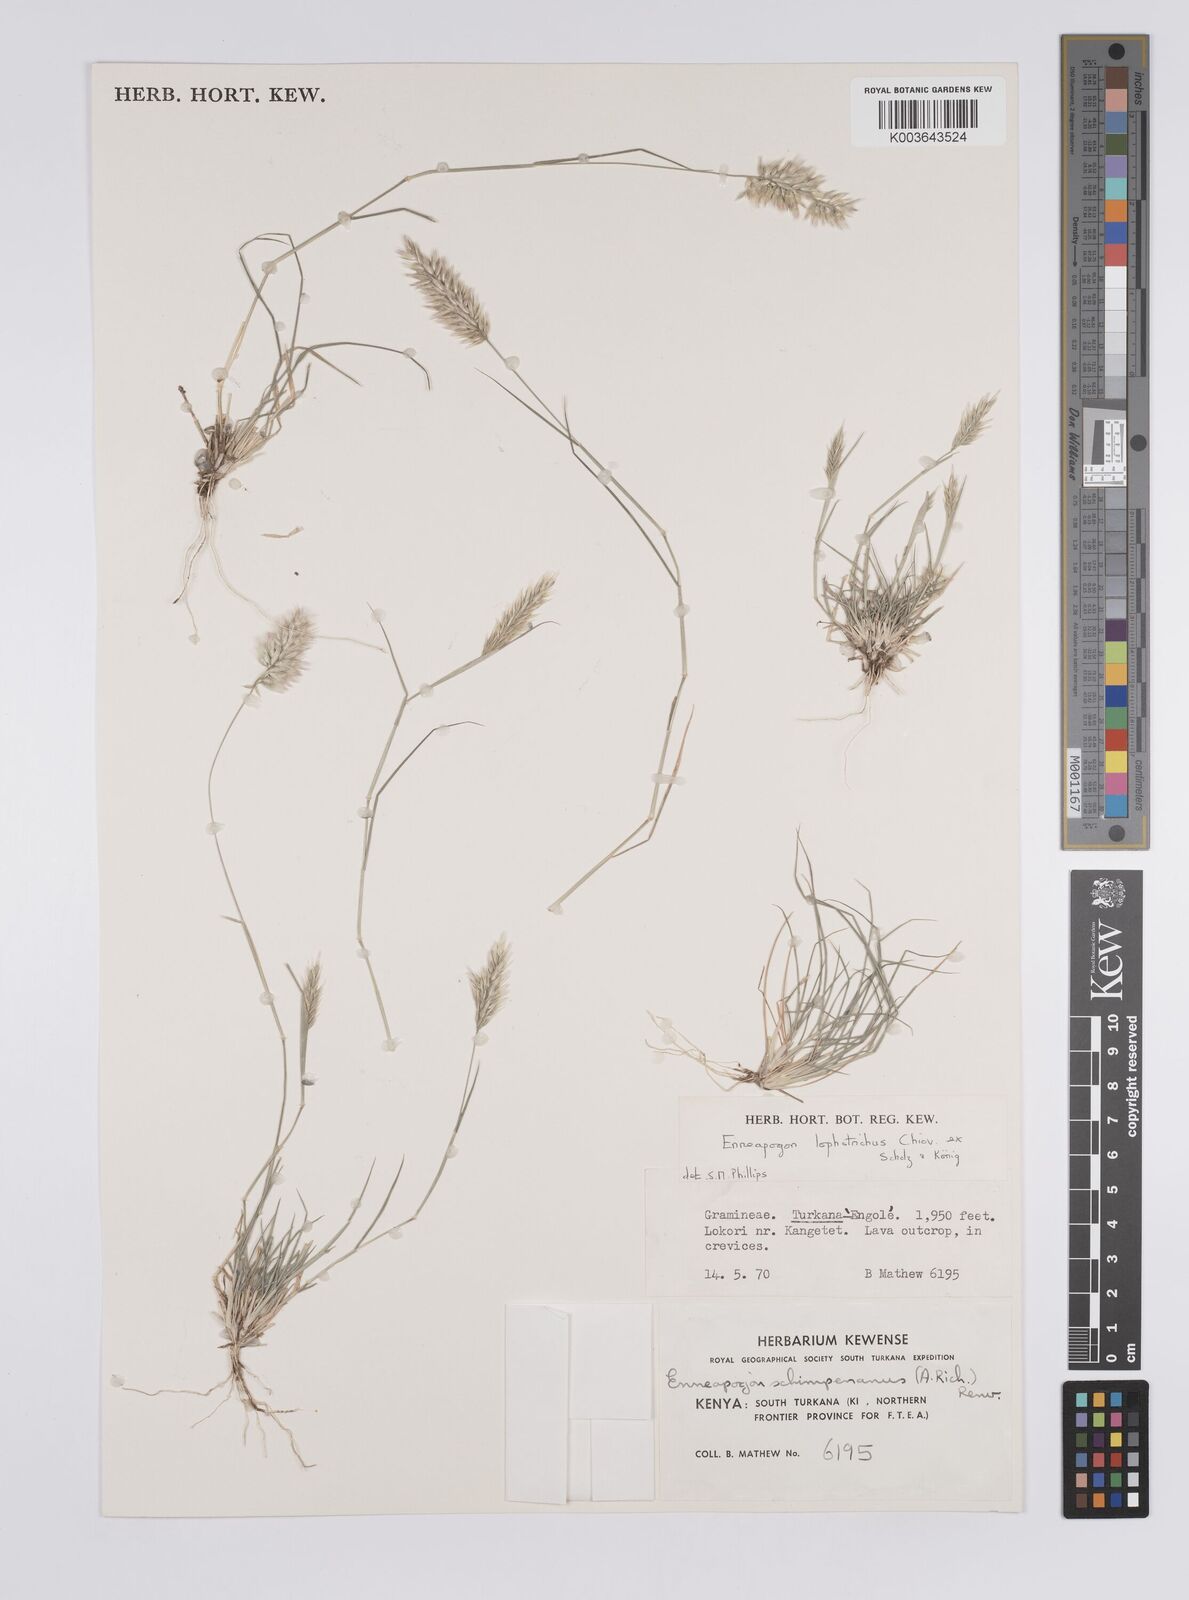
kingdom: Plantae
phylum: Tracheophyta
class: Liliopsida
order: Poales
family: Poaceae
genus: Enneapogon
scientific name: Enneapogon lophotrichus
